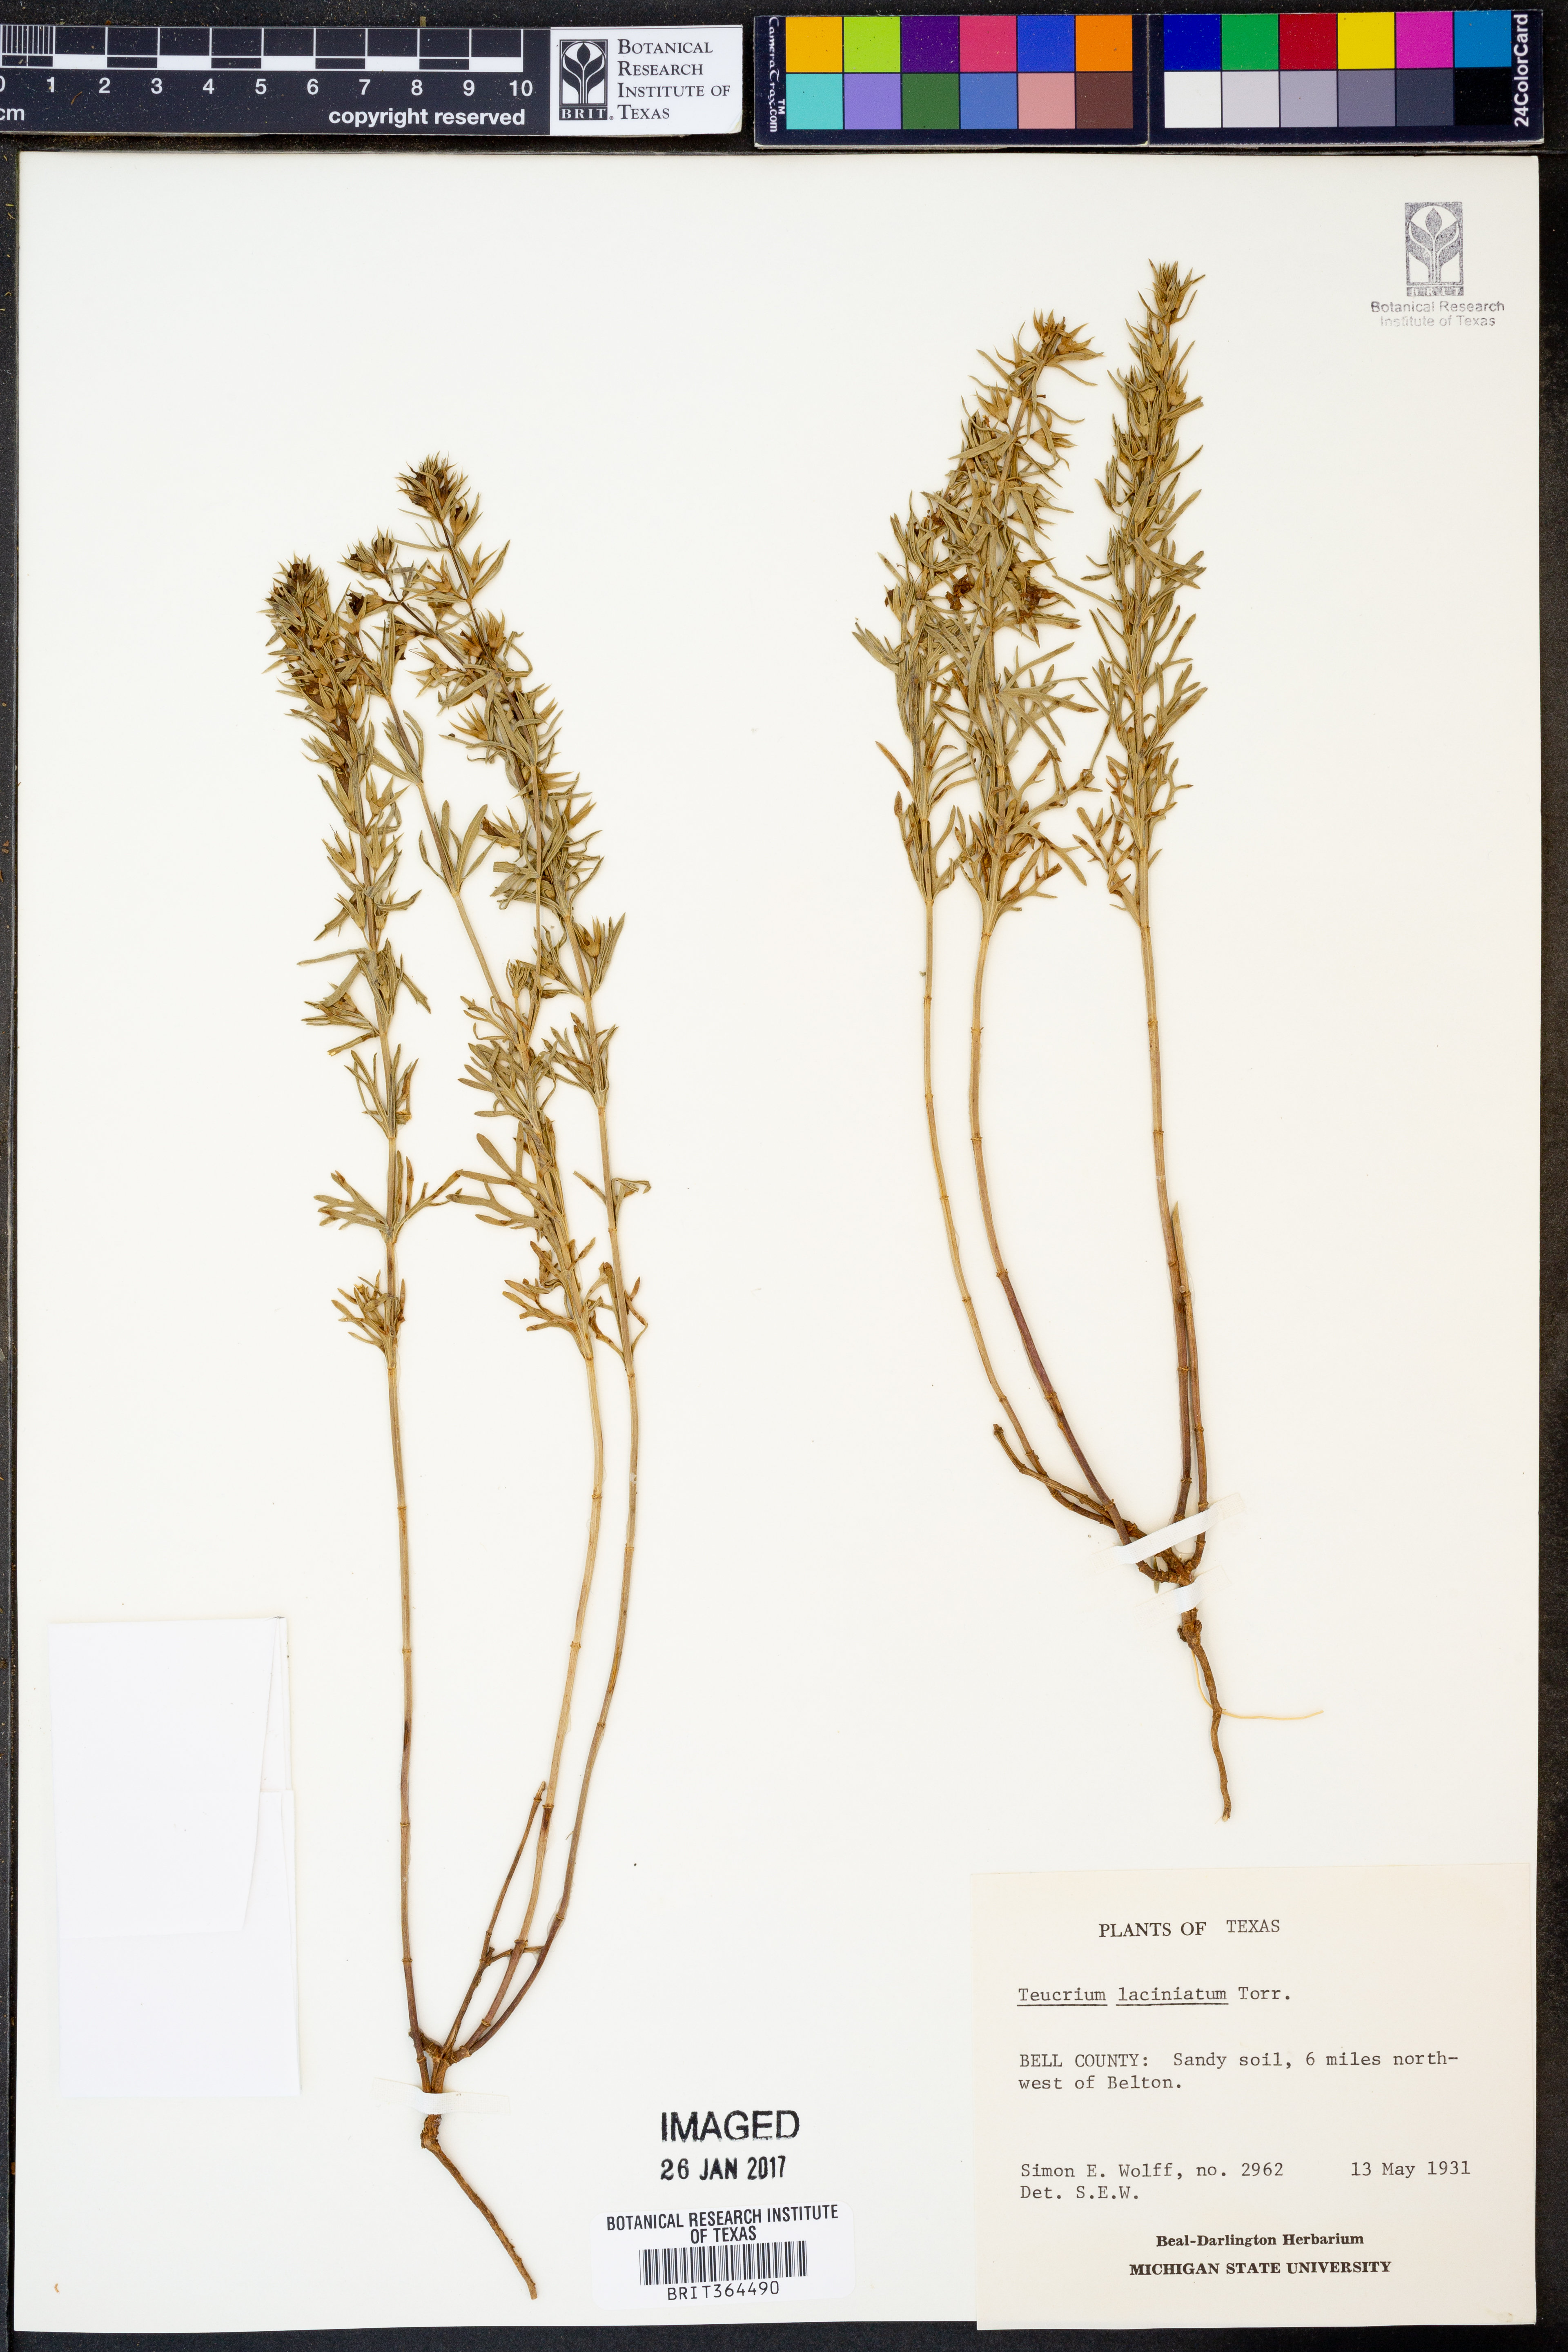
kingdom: Plantae
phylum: Tracheophyta
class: Magnoliopsida
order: Lamiales
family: Lamiaceae
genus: Teucrium
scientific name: Teucrium laciniatum
